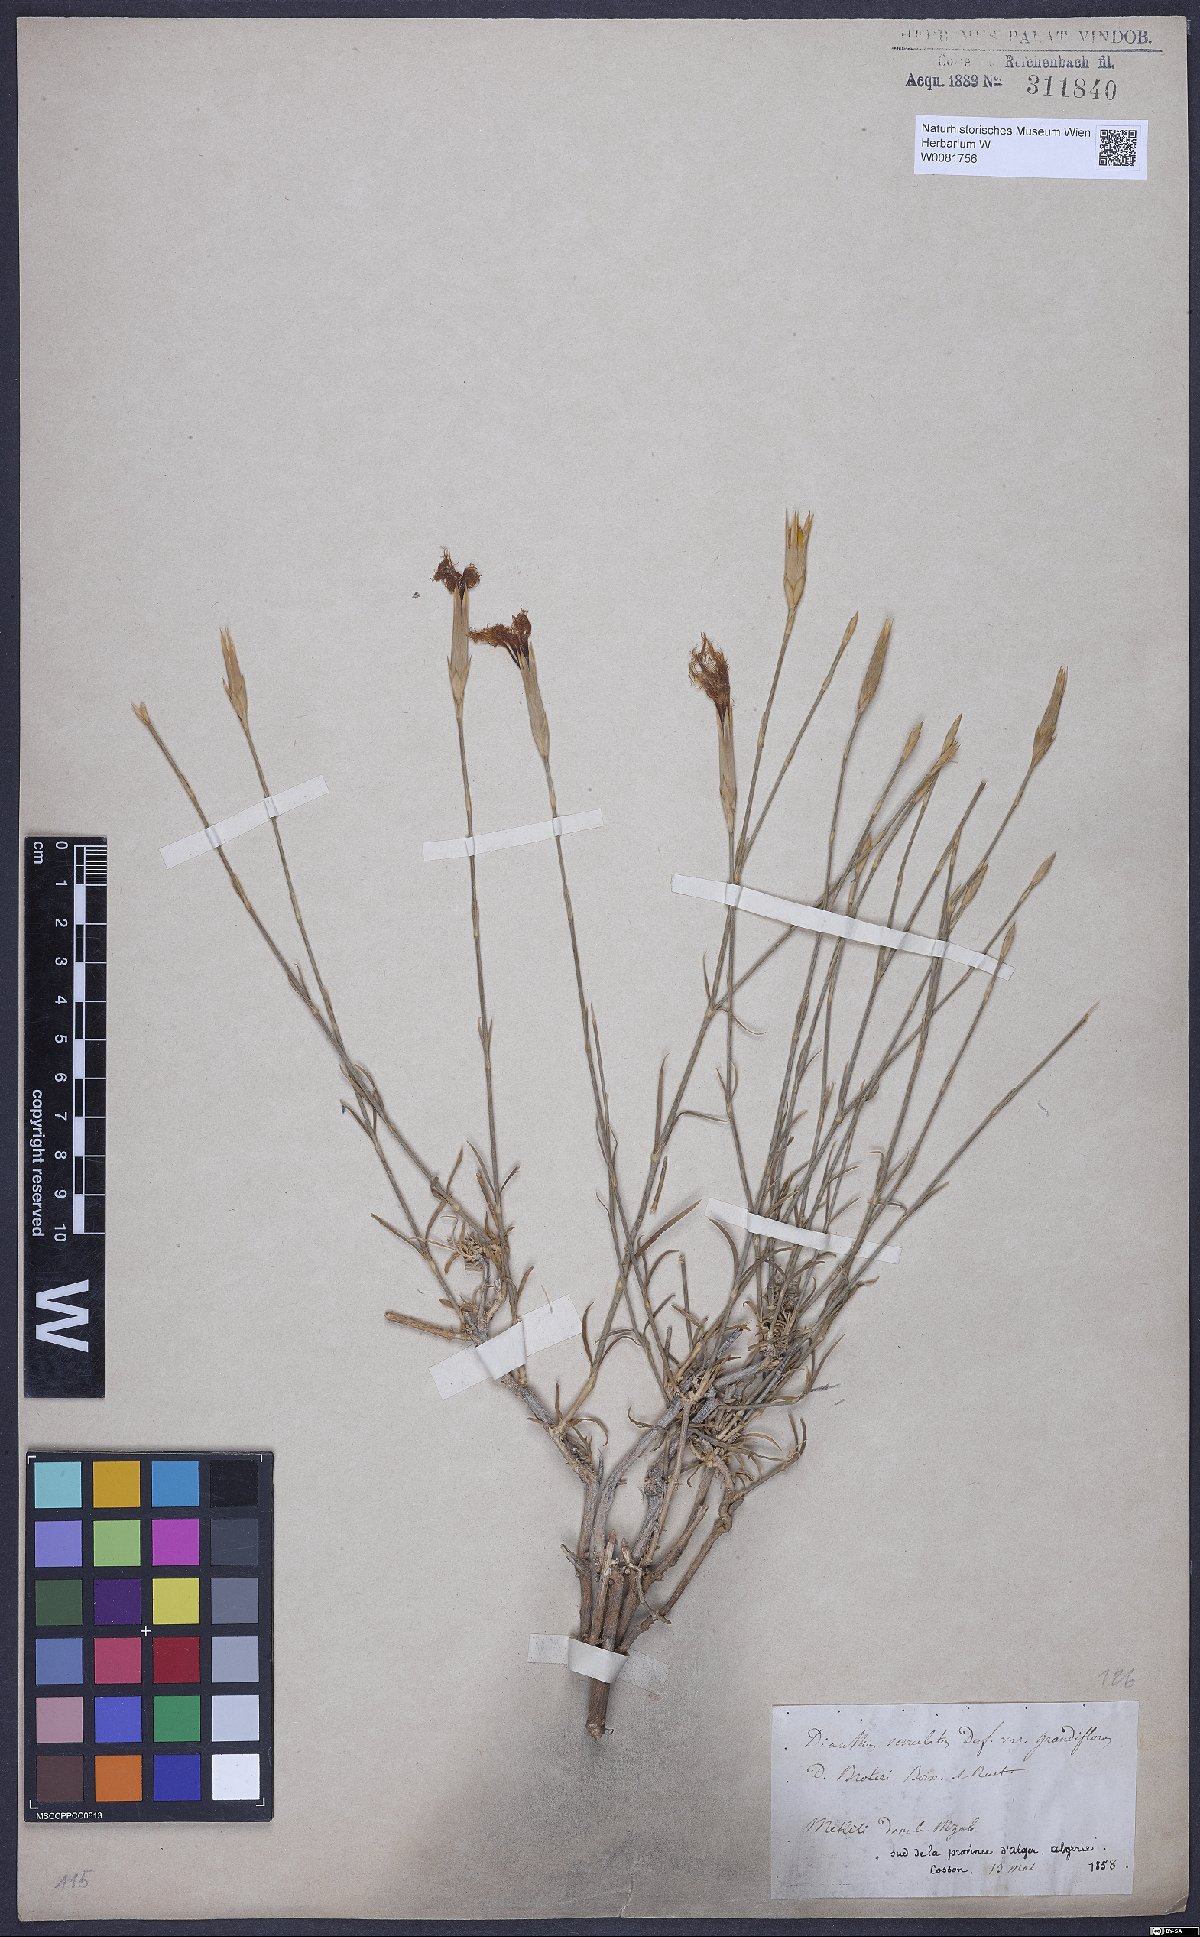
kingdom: Plantae
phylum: Tracheophyta
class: Magnoliopsida
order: Caryophyllales
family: Caryophyllaceae
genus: Dianthus
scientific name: Dianthus broteri
